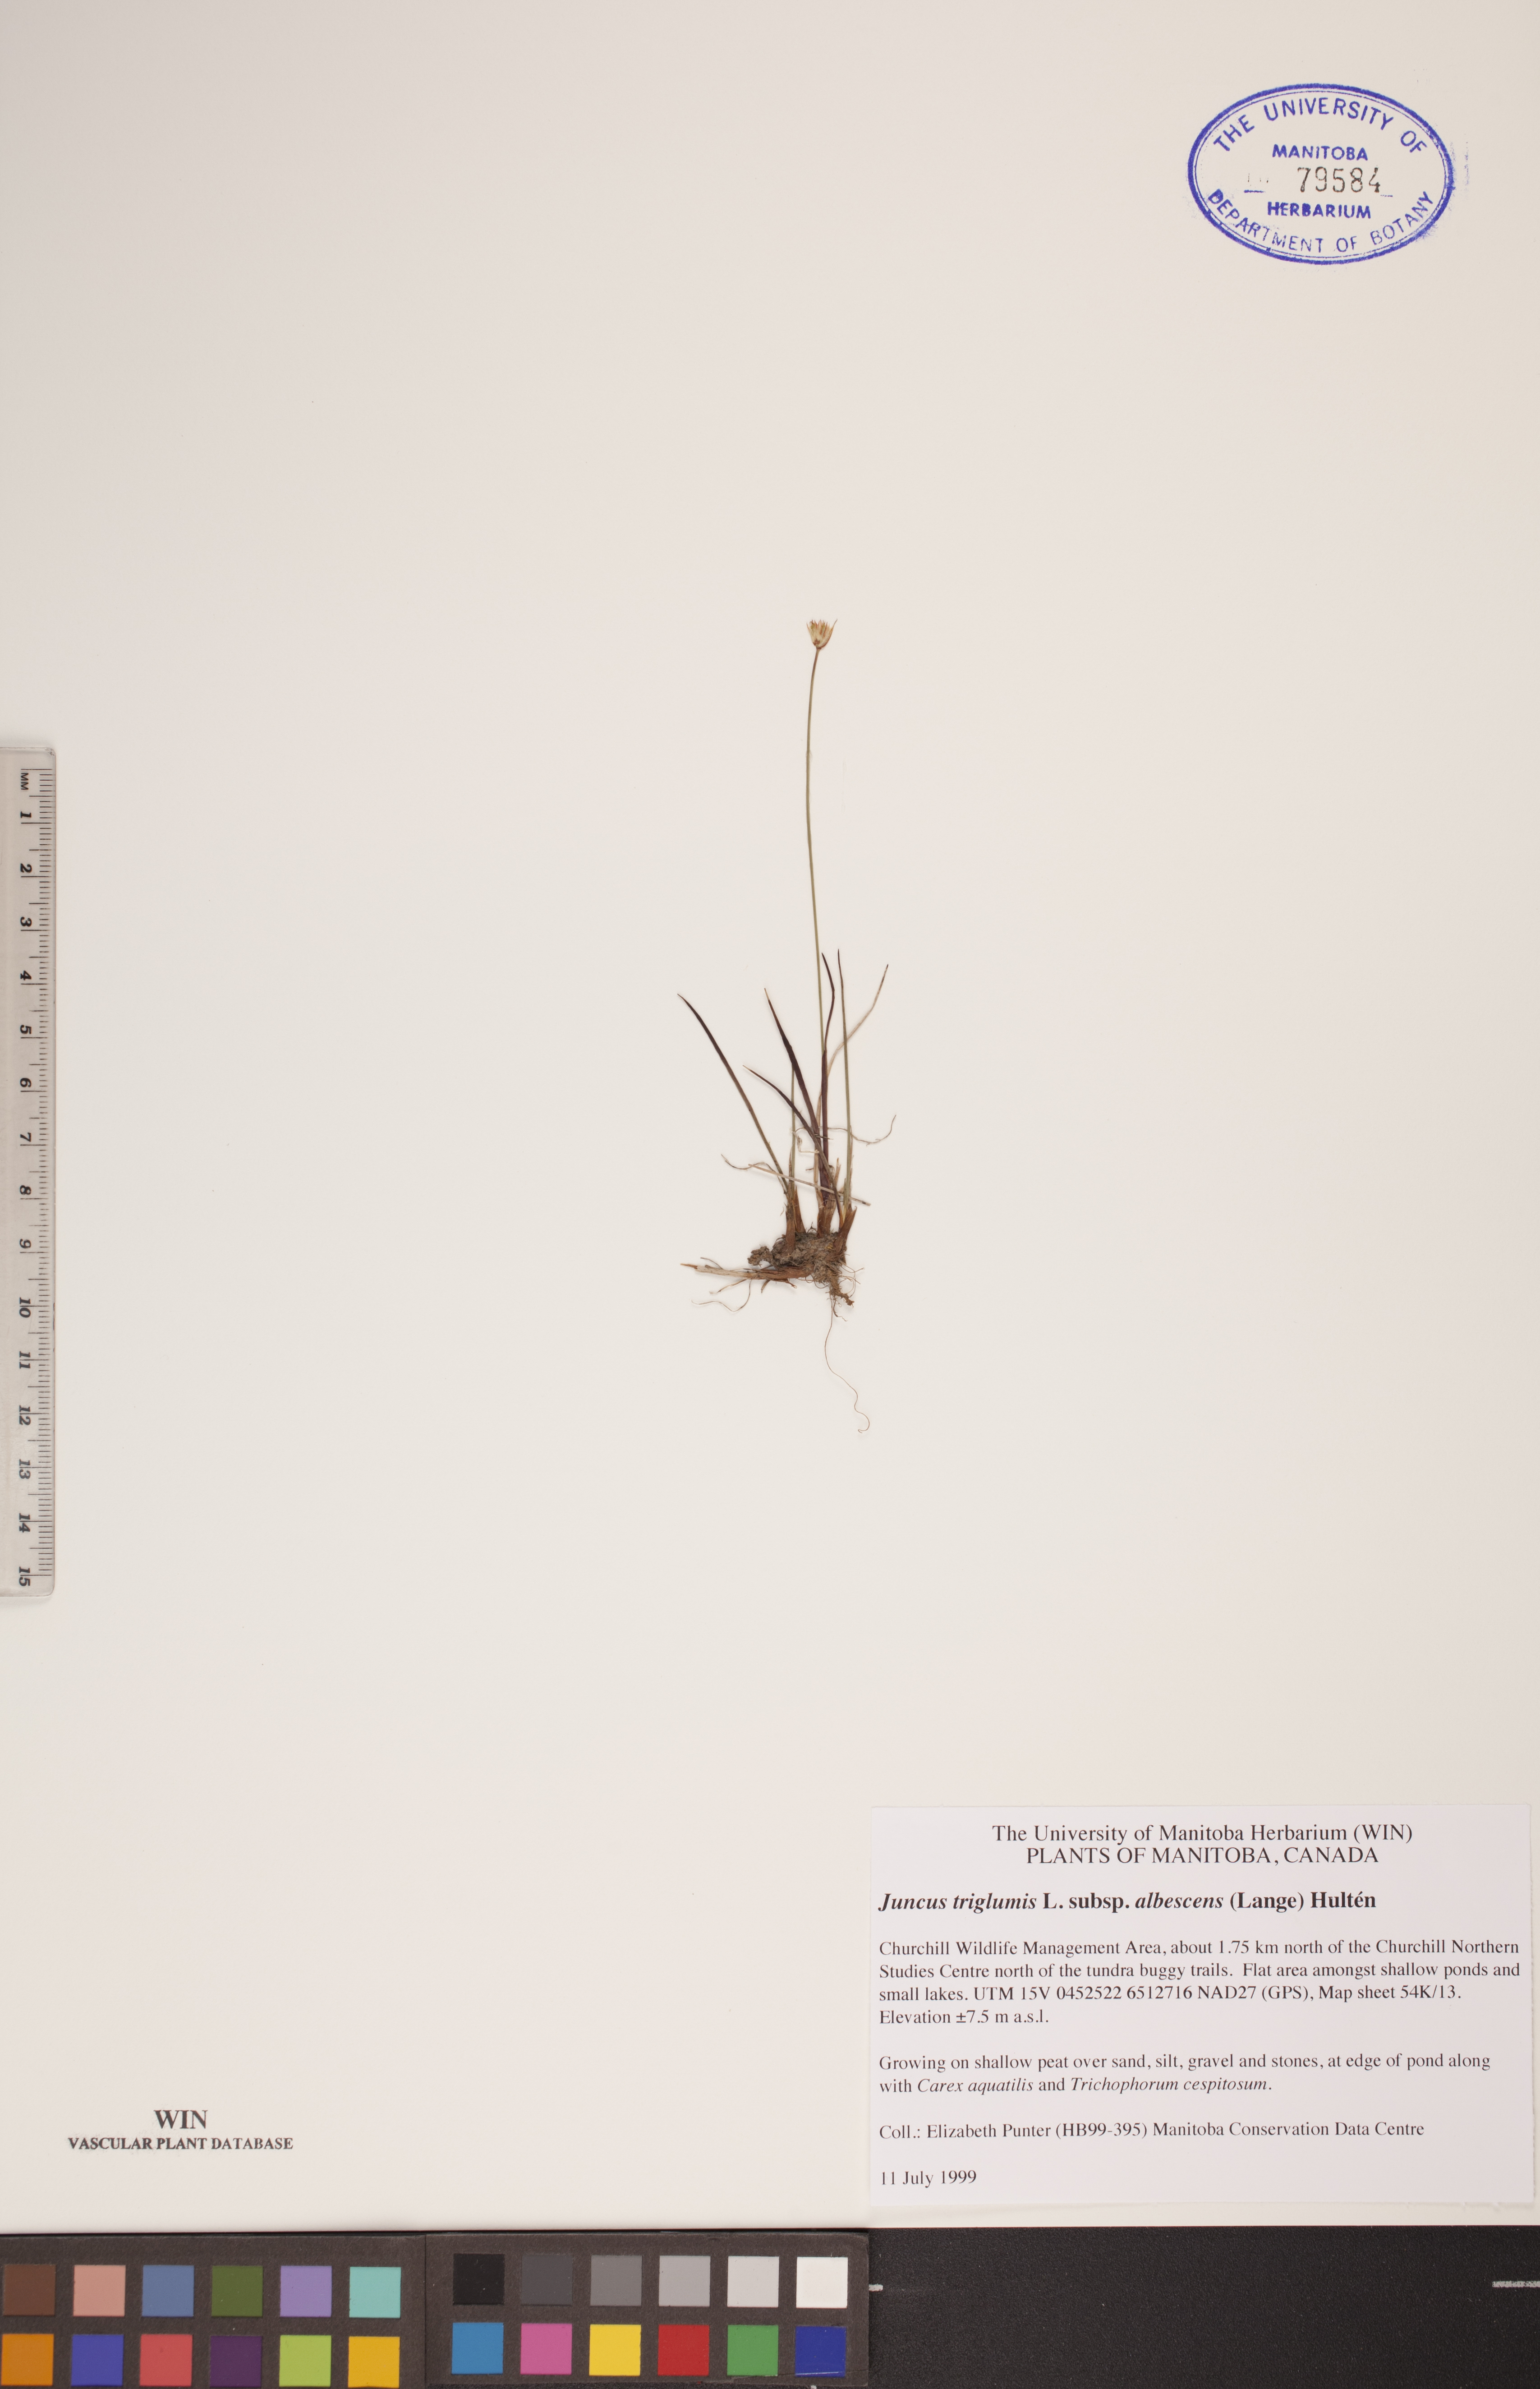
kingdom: Plantae
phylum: Tracheophyta
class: Liliopsida
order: Poales
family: Juncaceae
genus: Juncus
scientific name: Juncus albescens
